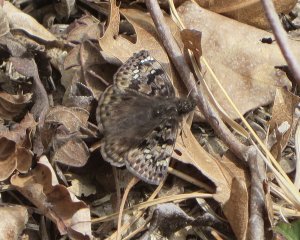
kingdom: Animalia
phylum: Arthropoda
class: Insecta
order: Lepidoptera
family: Hesperiidae
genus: Gesta
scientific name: Gesta
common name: Juvenal's Duskywing
